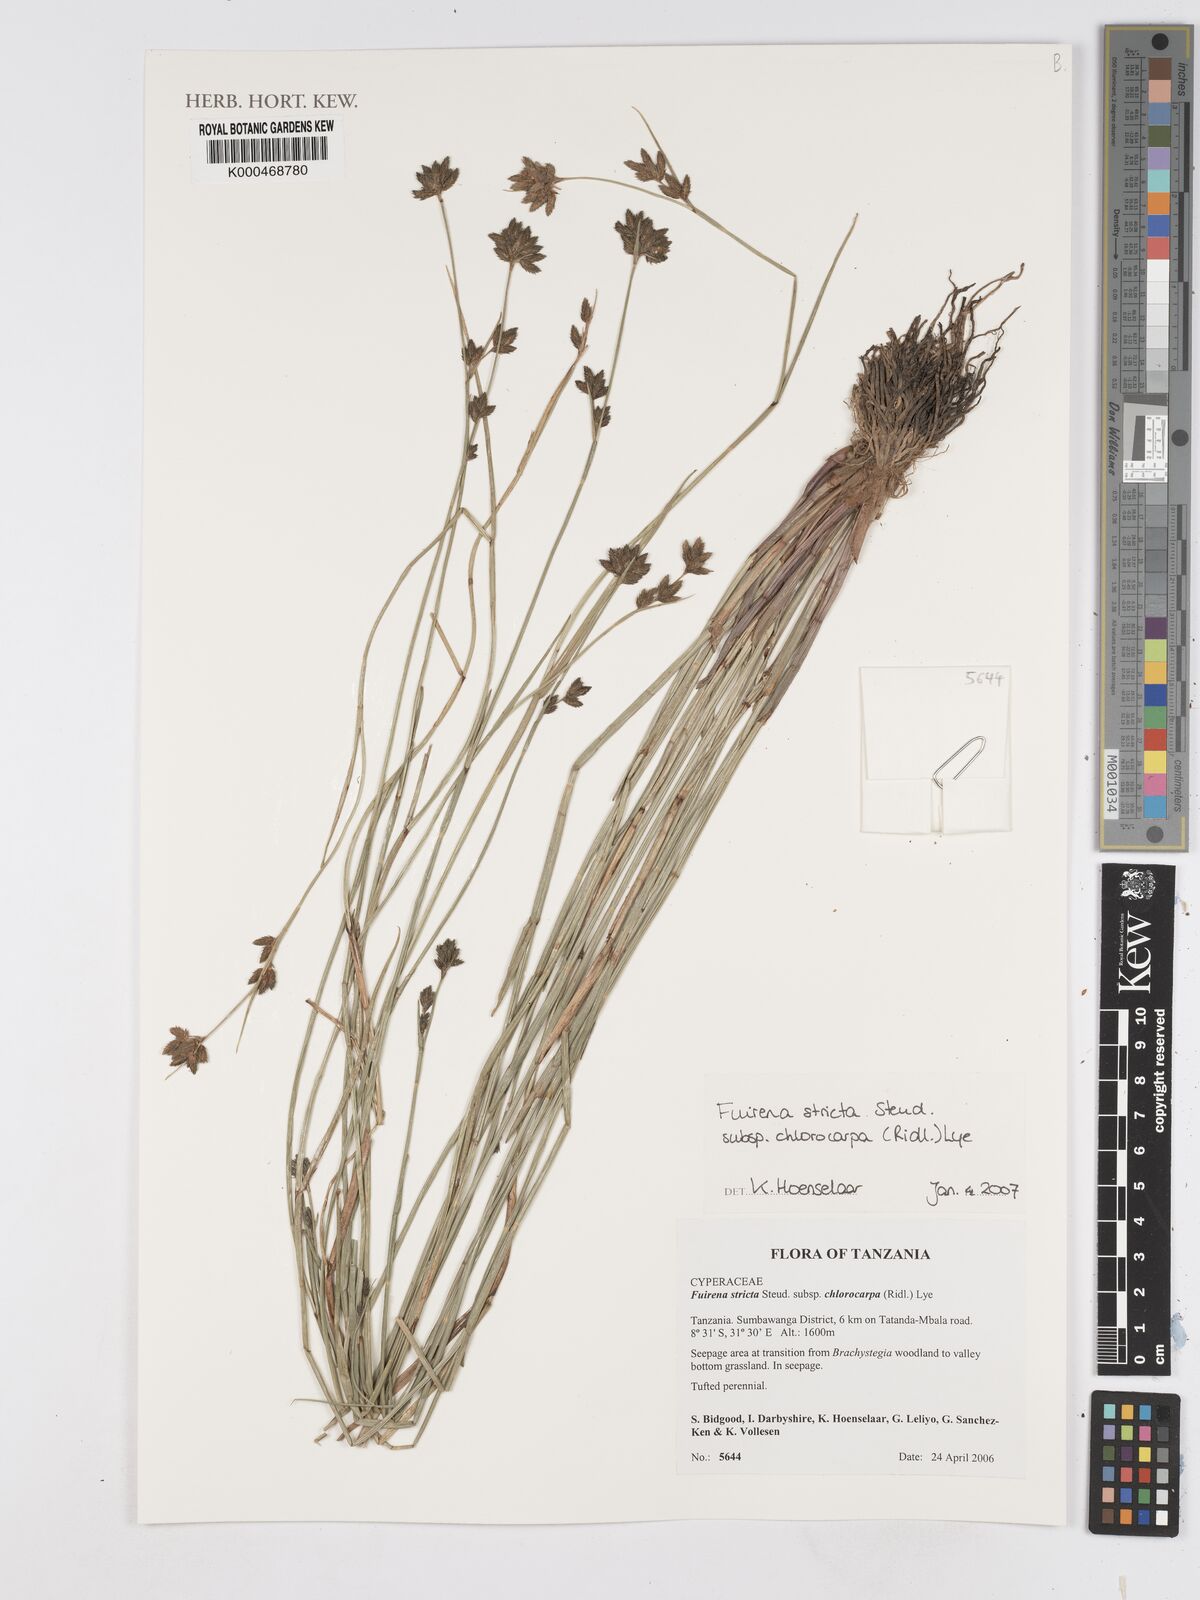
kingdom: Plantae
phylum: Tracheophyta
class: Liliopsida
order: Poales
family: Cyperaceae
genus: Fuirena
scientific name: Fuirena stricta
